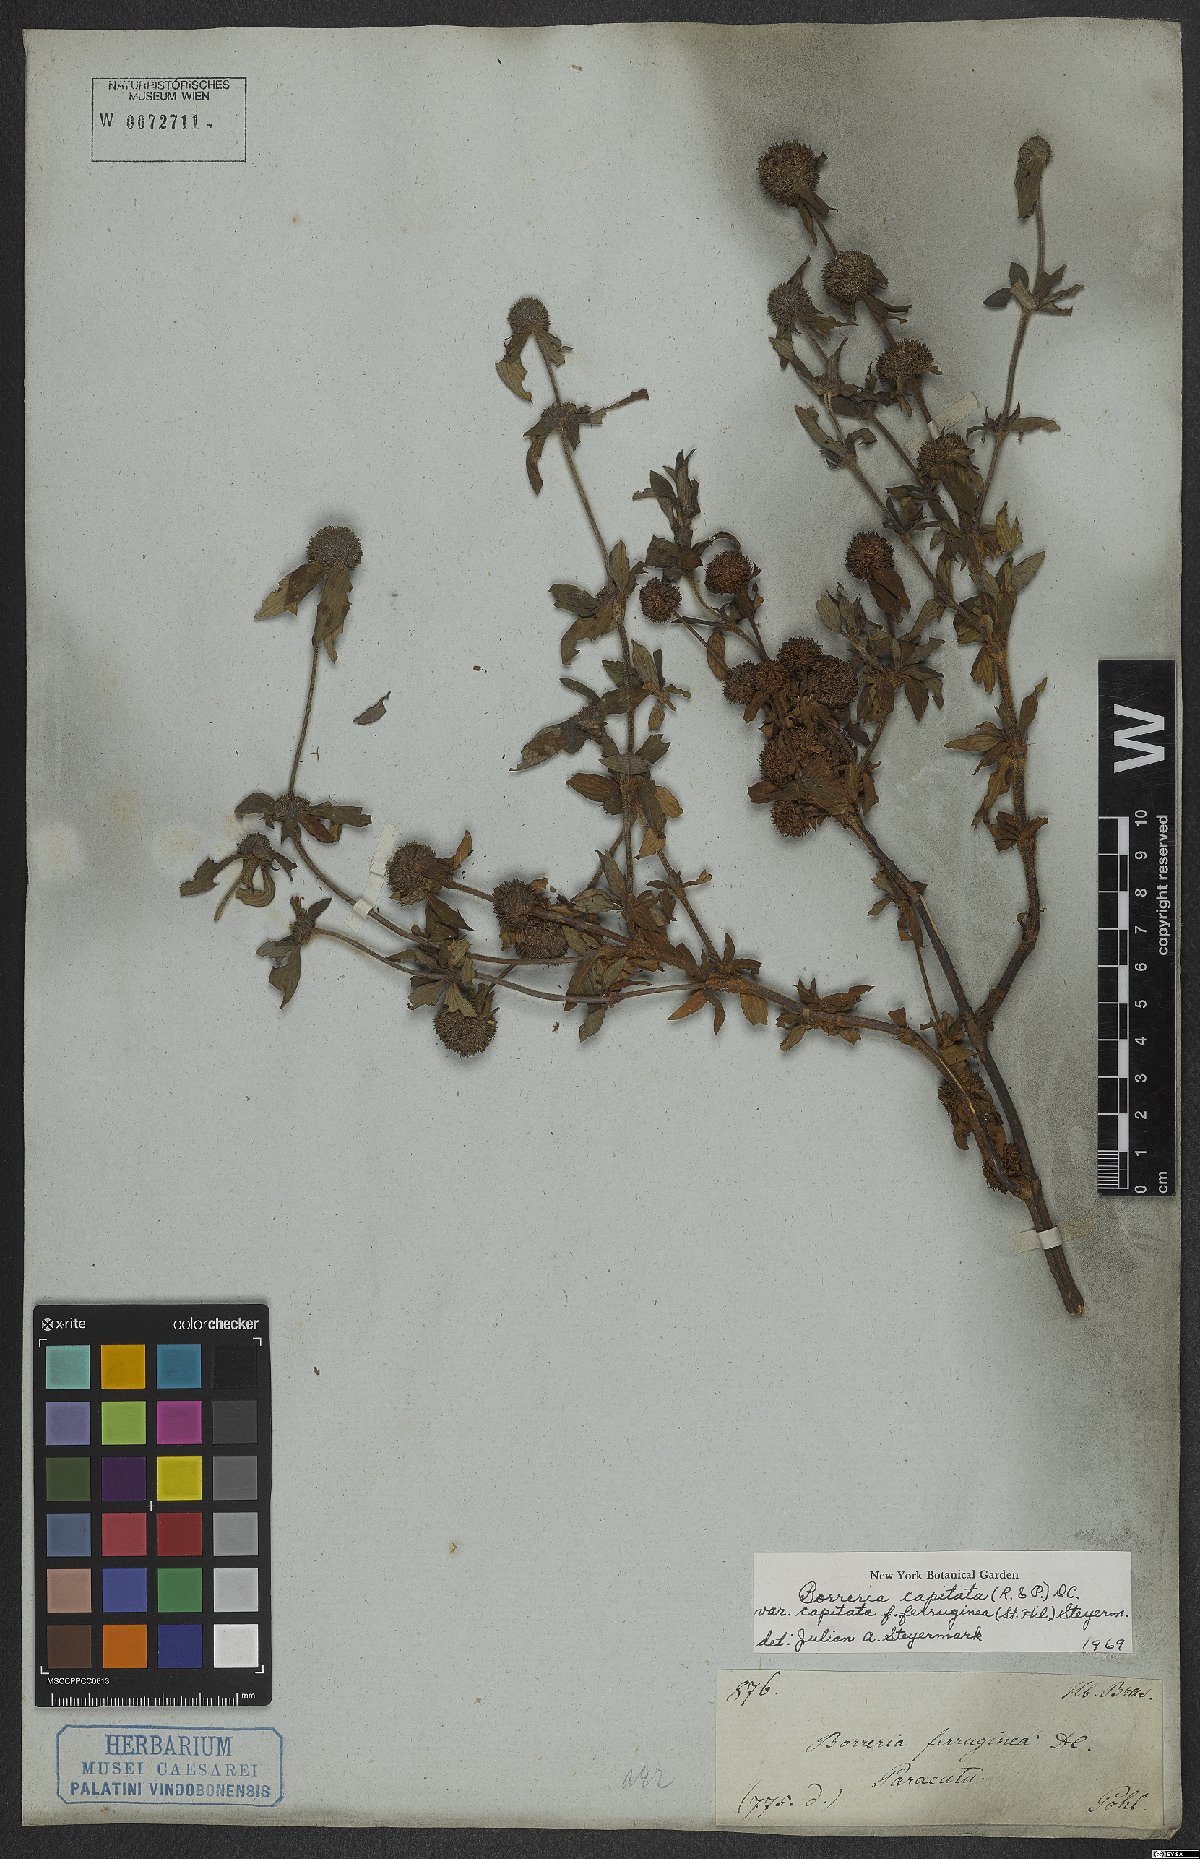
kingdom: Plantae
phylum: Tracheophyta
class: Magnoliopsida
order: Gentianales
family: Rubiaceae
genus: Spermacoce
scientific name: Spermacoce capitata
